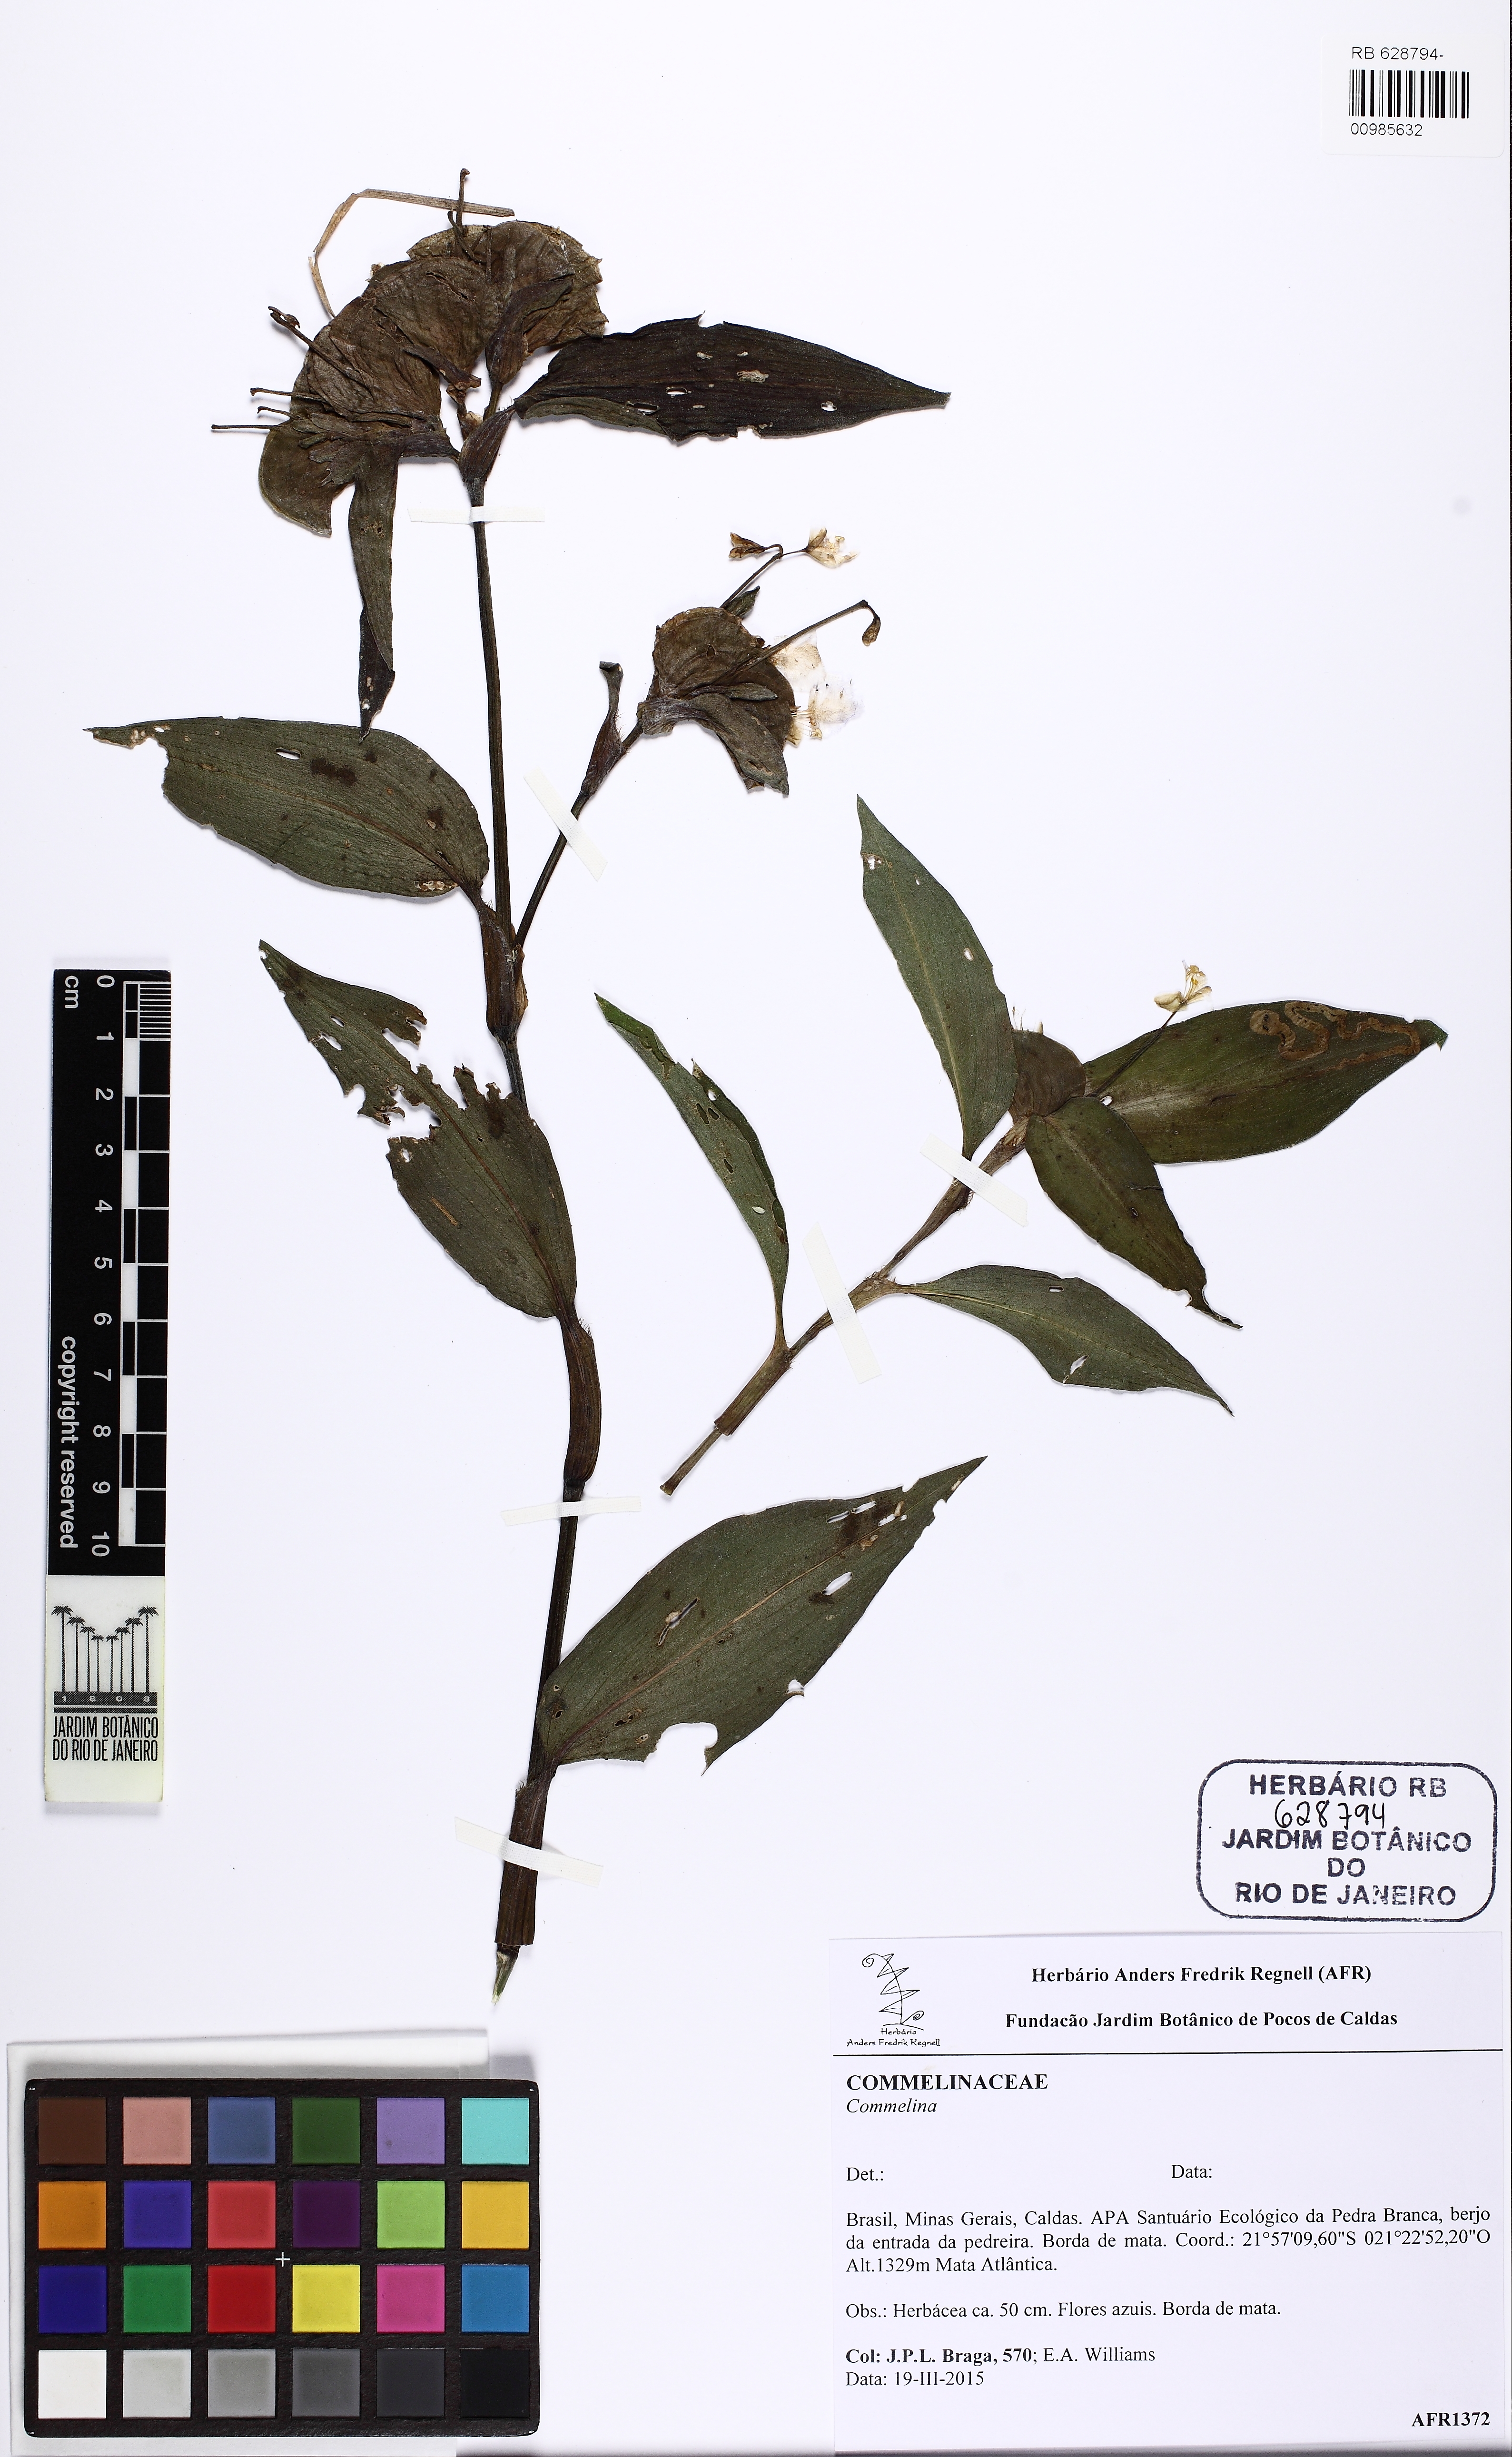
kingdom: Plantae
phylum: Tracheophyta
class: Liliopsida
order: Commelinales
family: Commelinaceae
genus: Commelina
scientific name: Commelina obliqua
